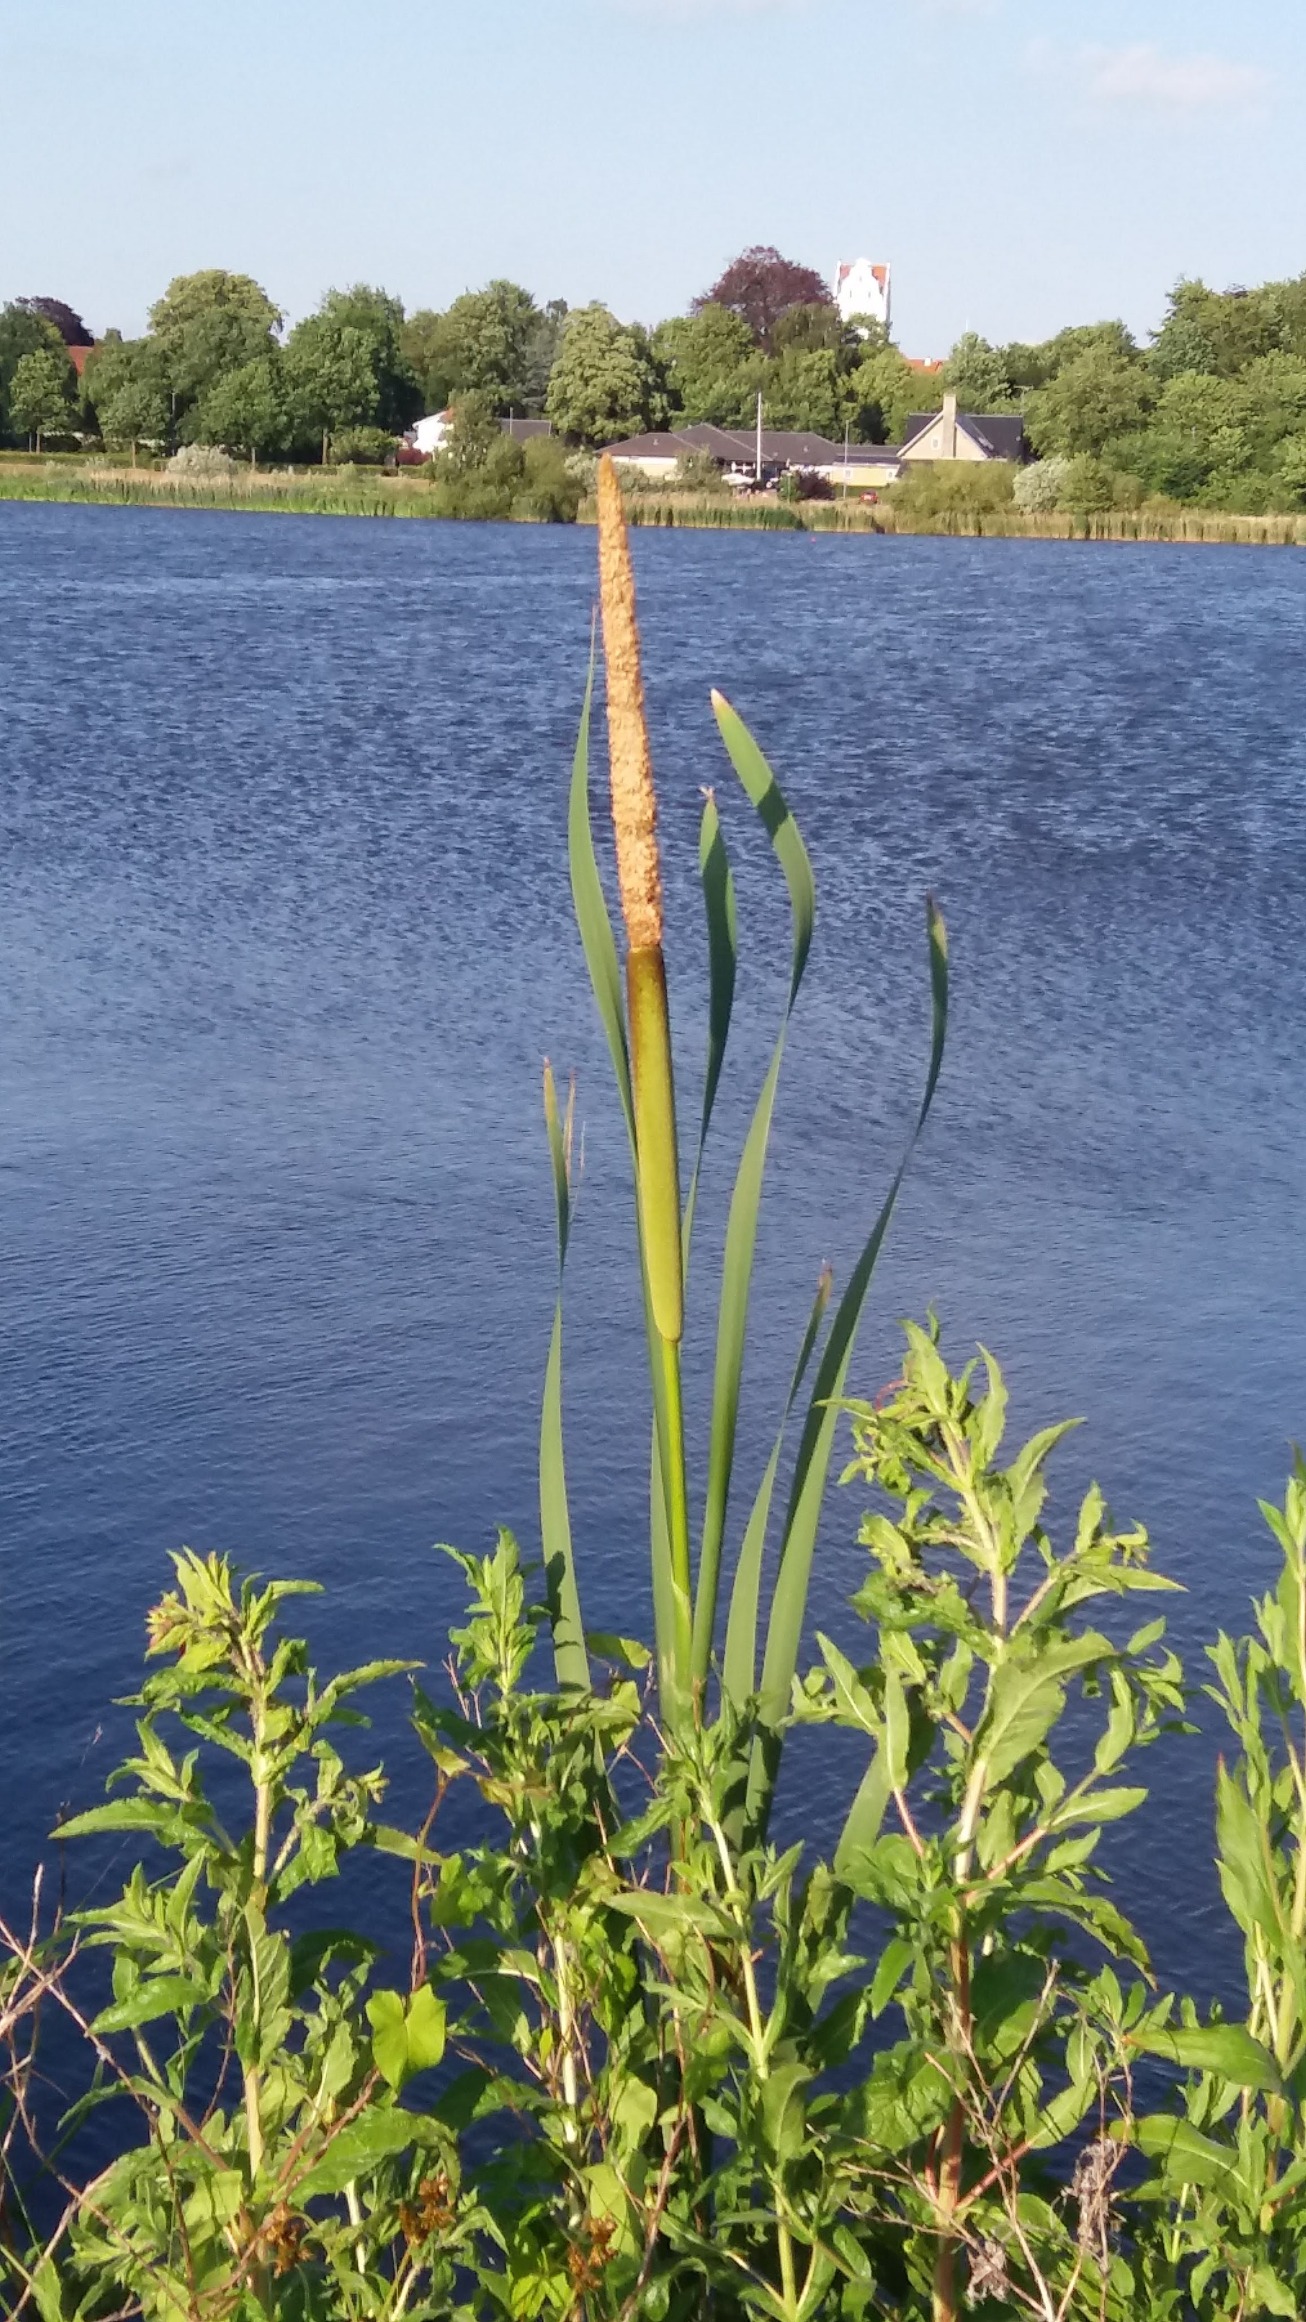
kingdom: Plantae
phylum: Tracheophyta
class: Liliopsida
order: Poales
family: Typhaceae
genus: Typha
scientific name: Typha latifolia
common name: Bredbladet dunhammer
